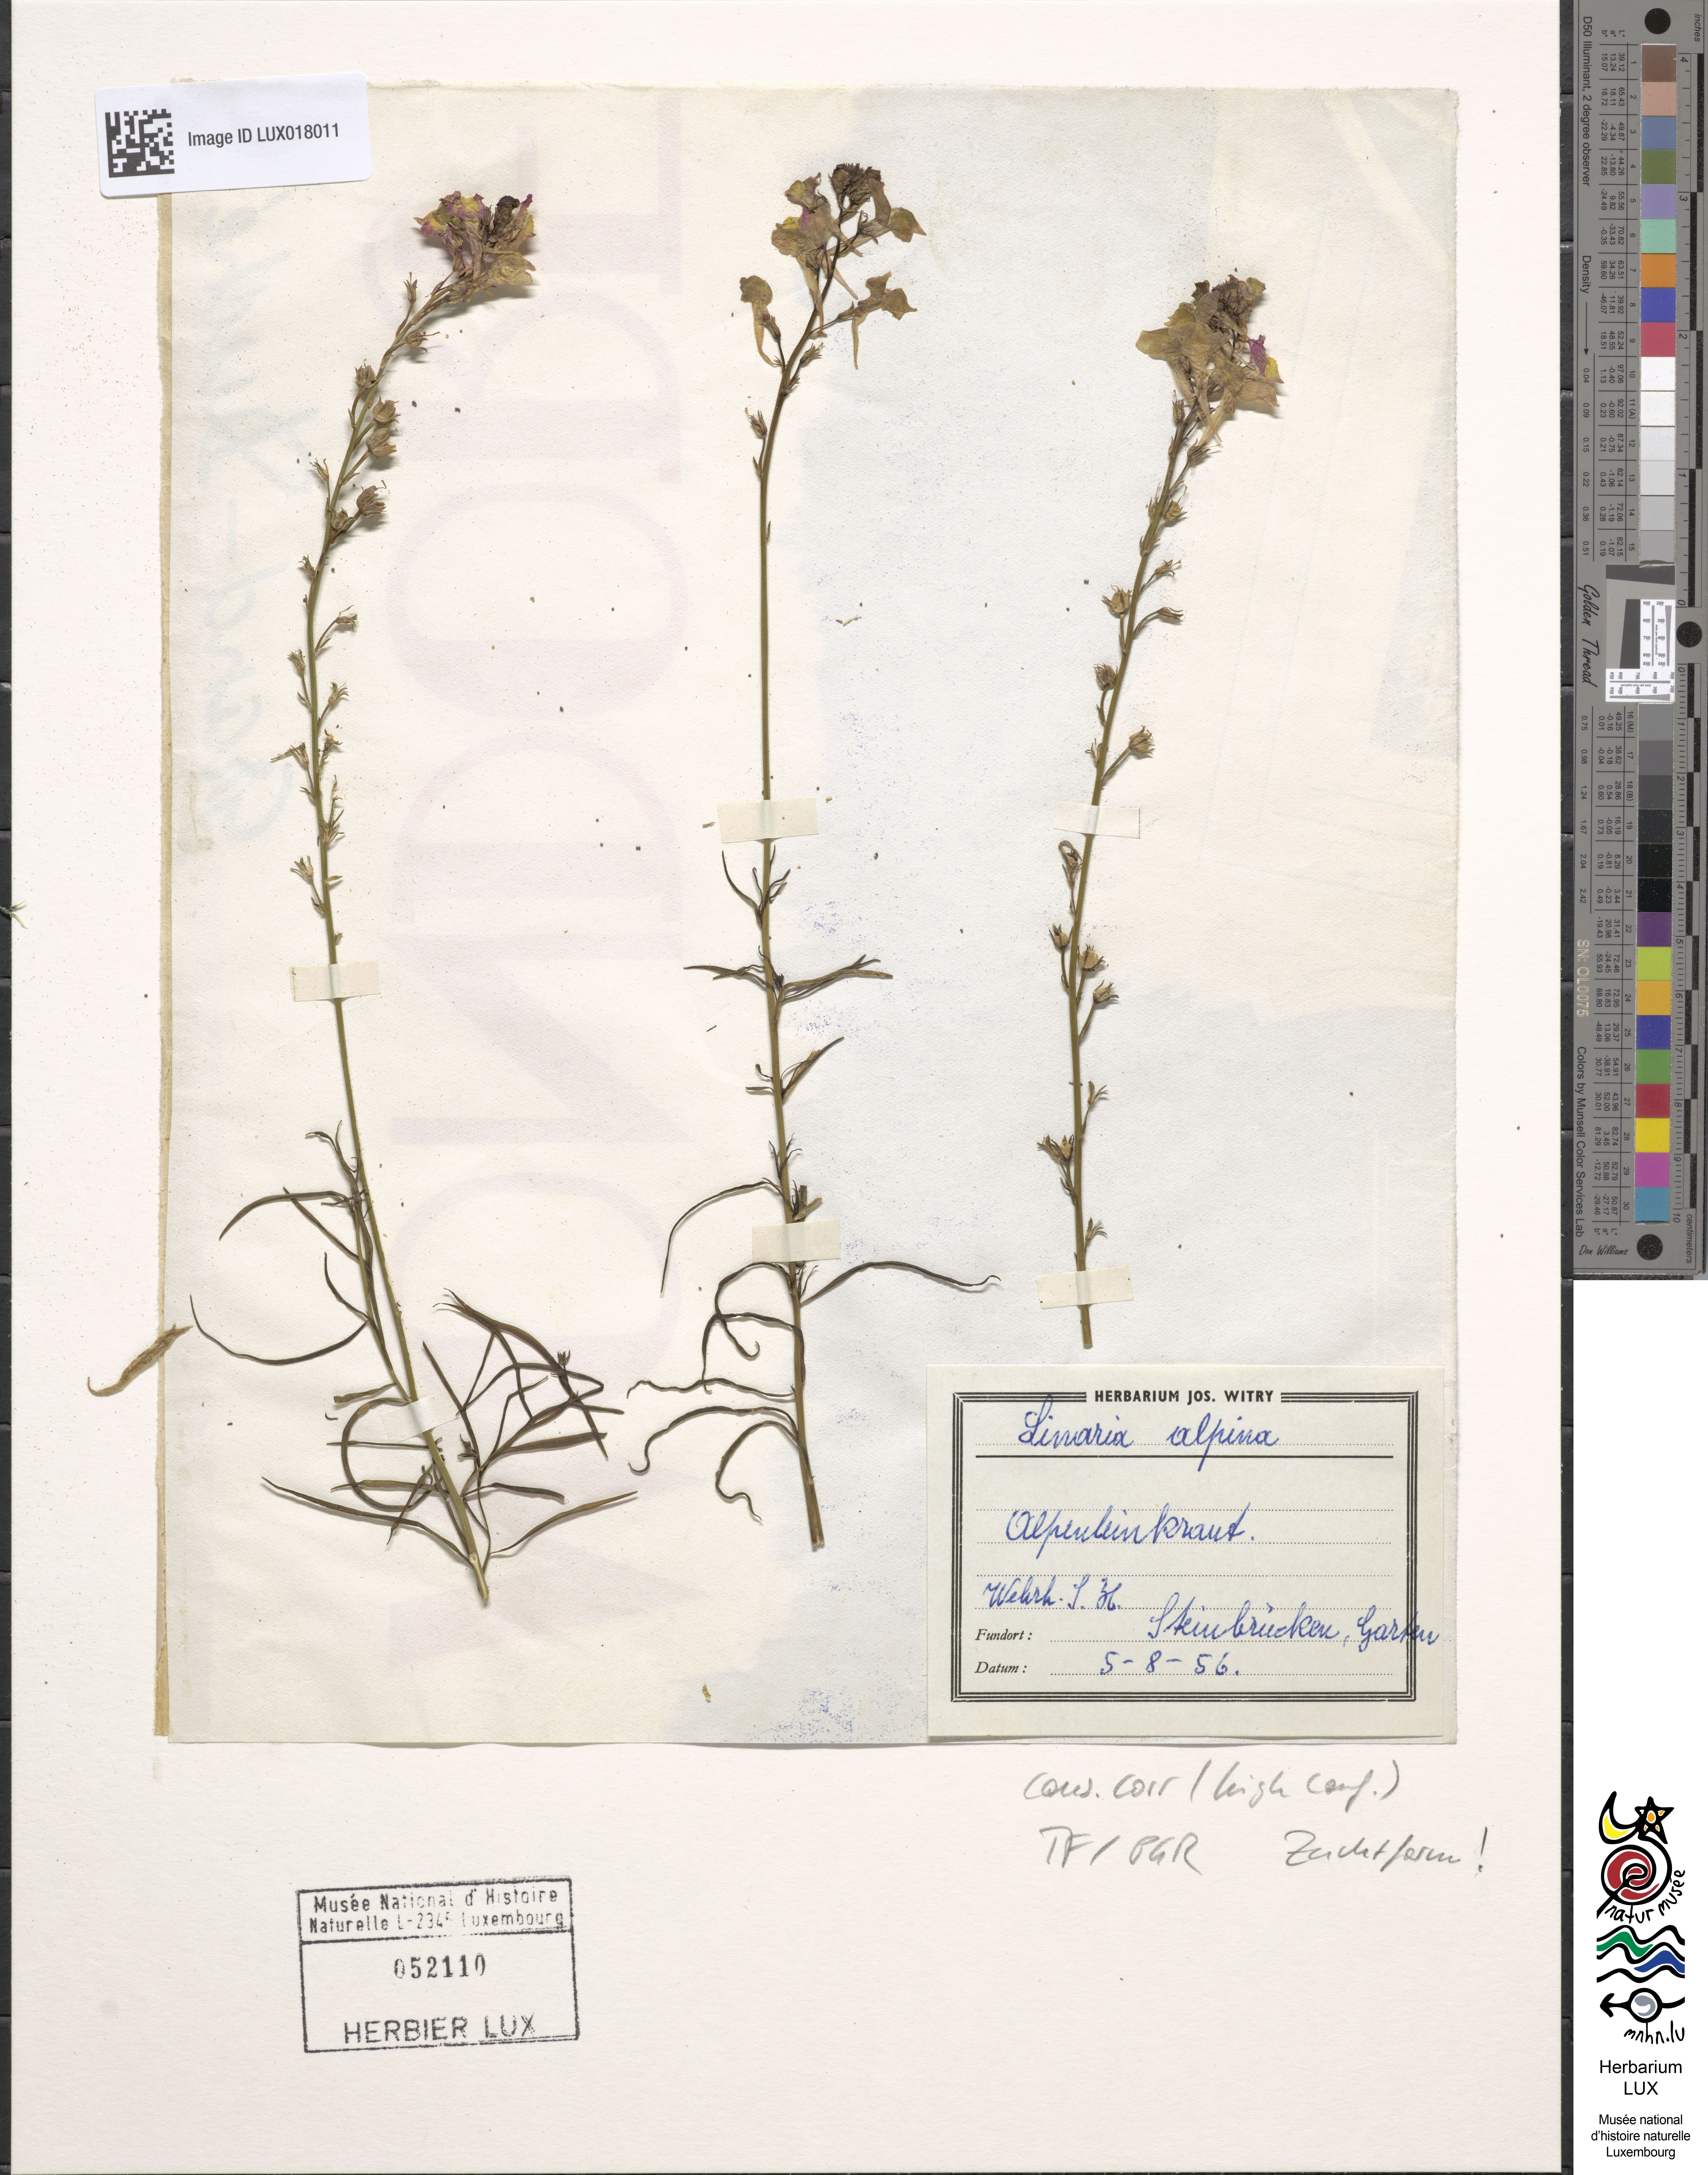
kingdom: Plantae
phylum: Tracheophyta
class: Magnoliopsida
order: Lamiales
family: Plantaginaceae
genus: Linaria
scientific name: Linaria alpina
